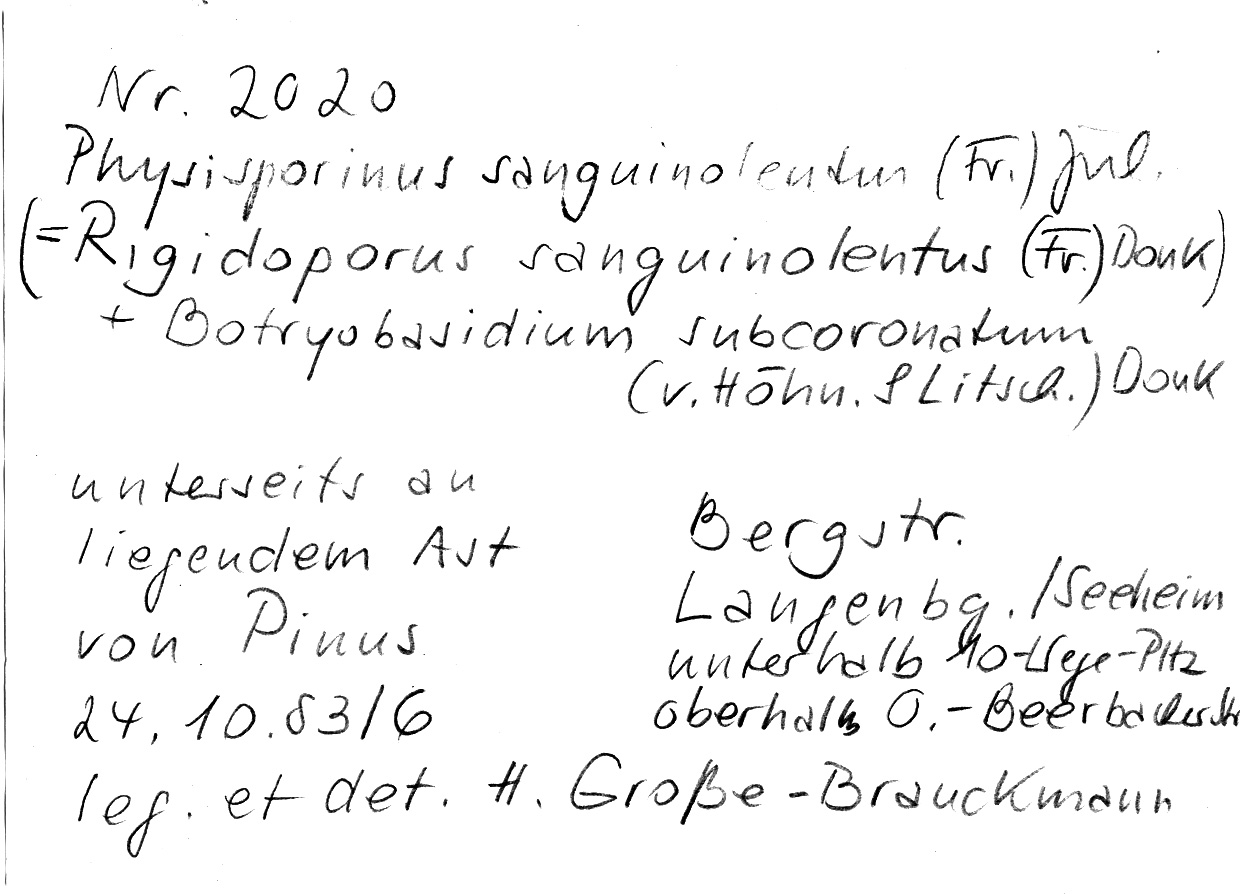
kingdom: Plantae
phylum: Tracheophyta
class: Pinopsida
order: Pinales
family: Pinaceae
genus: Pinus
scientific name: Pinus
